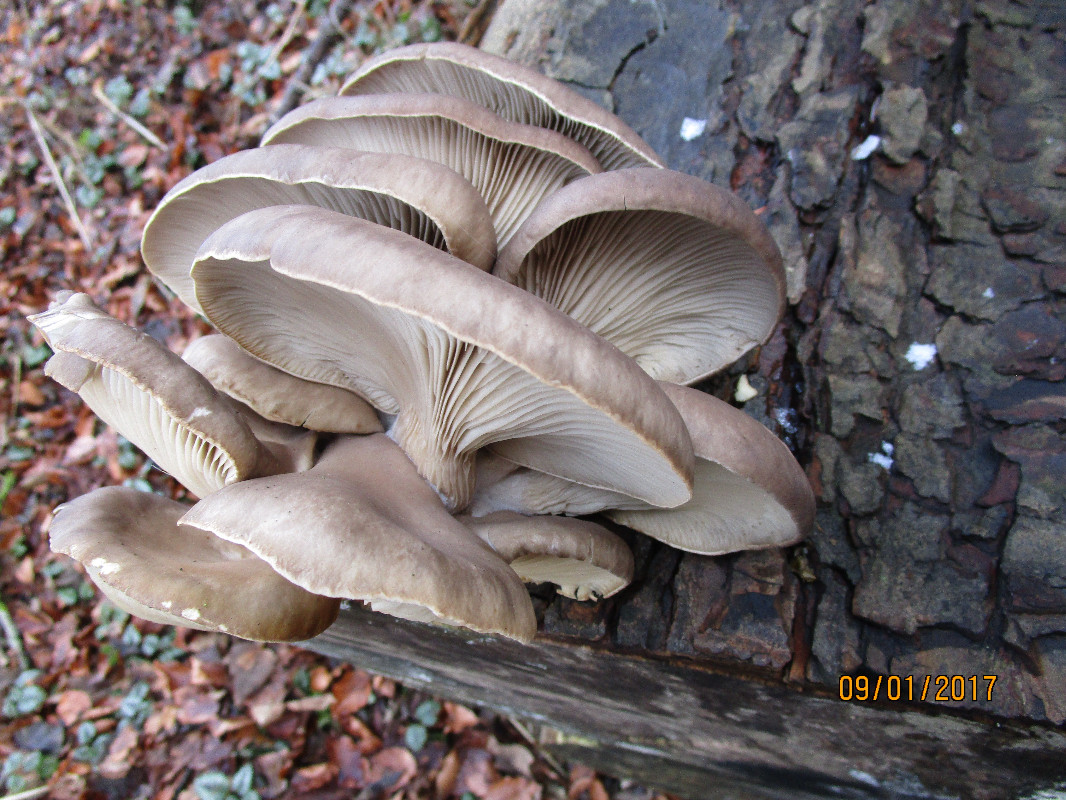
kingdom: Fungi
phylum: Basidiomycota
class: Agaricomycetes
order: Agaricales
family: Pleurotaceae
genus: Pleurotus
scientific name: Pleurotus ostreatus
